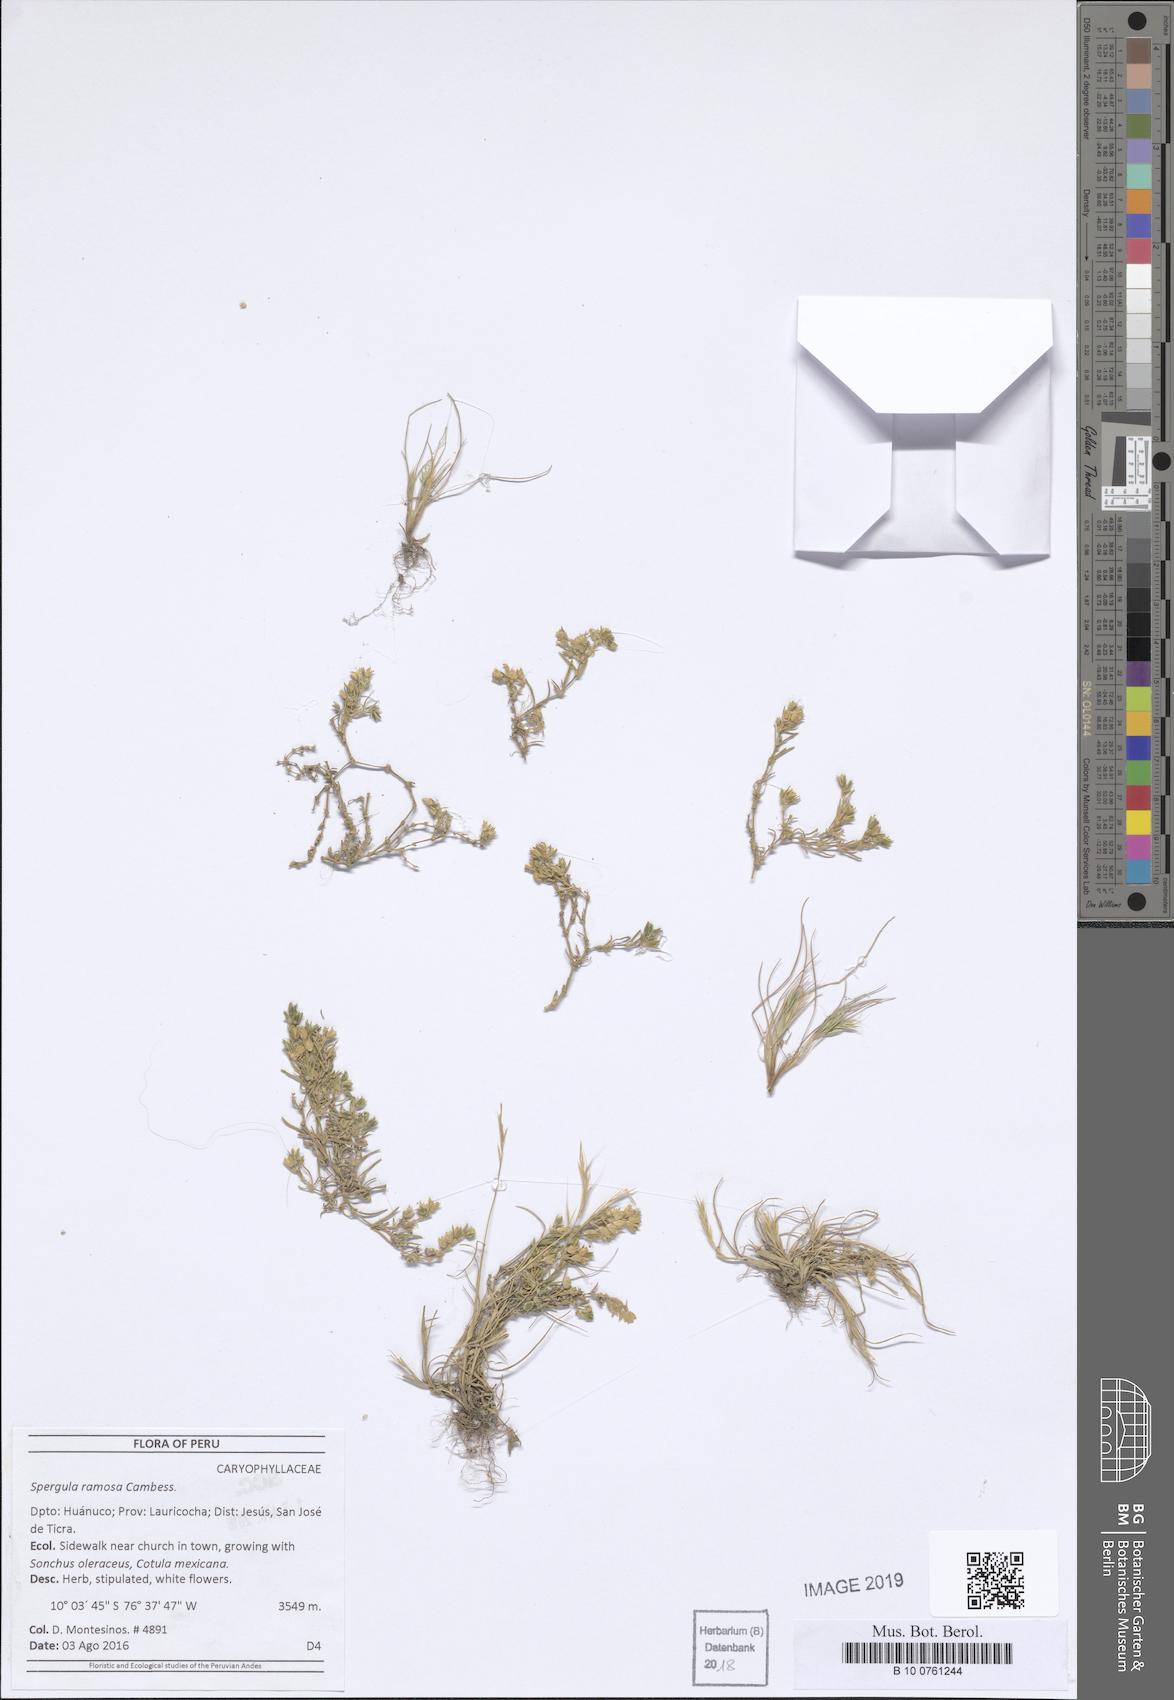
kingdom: Plantae
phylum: Tracheophyta
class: Magnoliopsida
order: Caryophyllales
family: Caryophyllaceae
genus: Spergula
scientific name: Spergula ramosa
